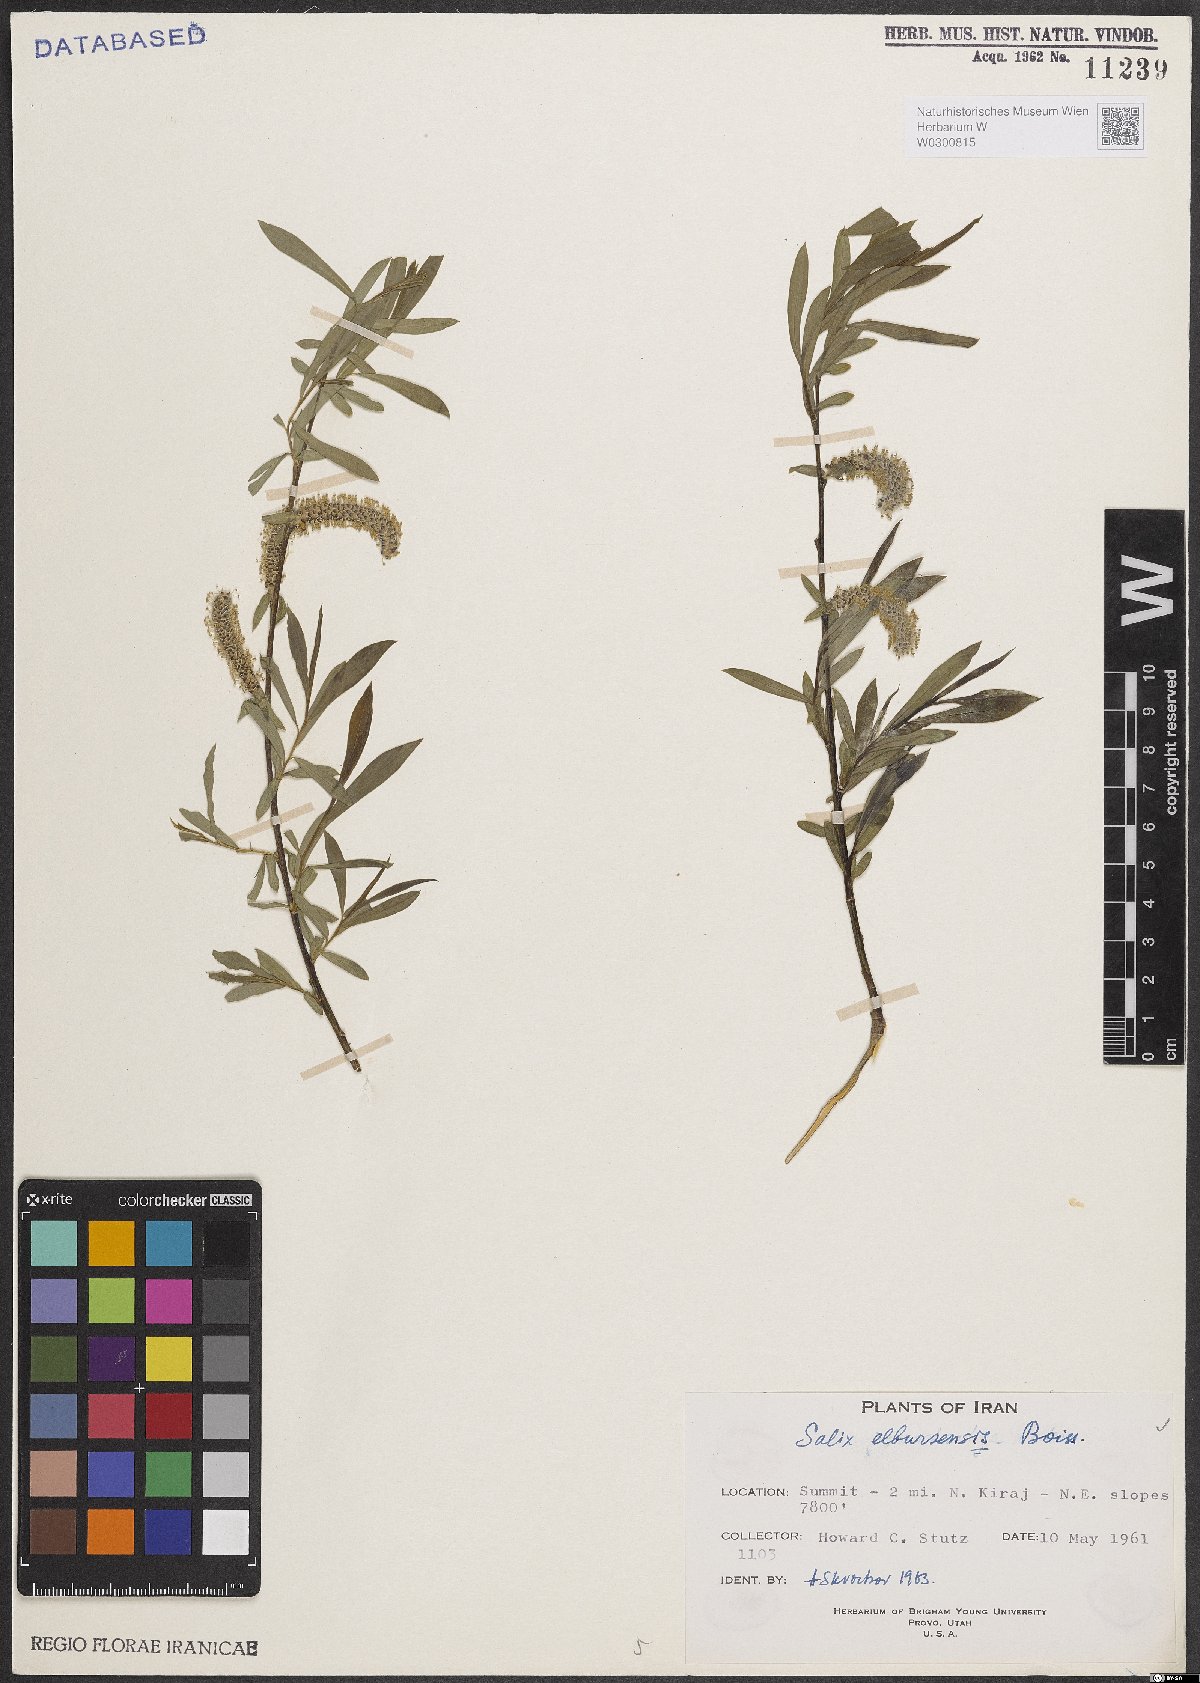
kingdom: Plantae
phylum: Tracheophyta
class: Magnoliopsida
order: Malpighiales
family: Salicaceae
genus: Salix
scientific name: Salix elbursensis
